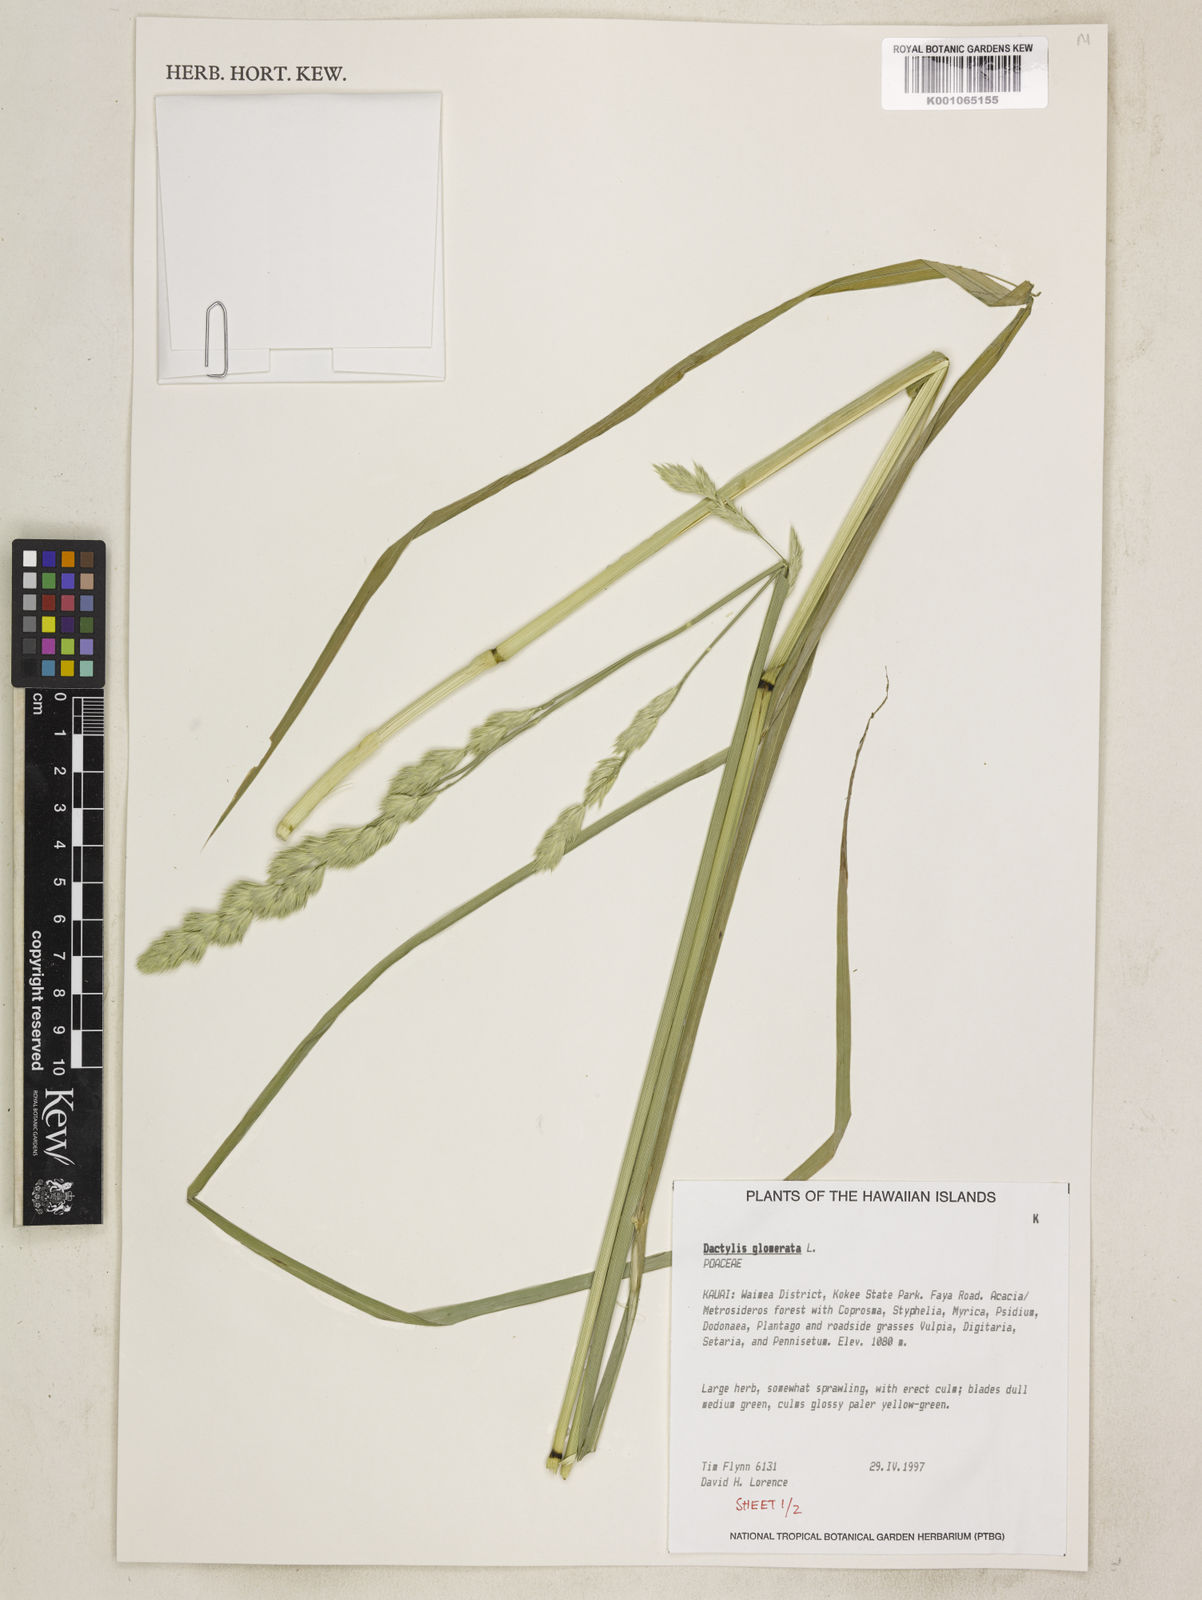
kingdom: Plantae
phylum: Tracheophyta
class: Liliopsida
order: Poales
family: Poaceae
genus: Dactylis
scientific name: Dactylis glomerata
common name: Orchardgrass
